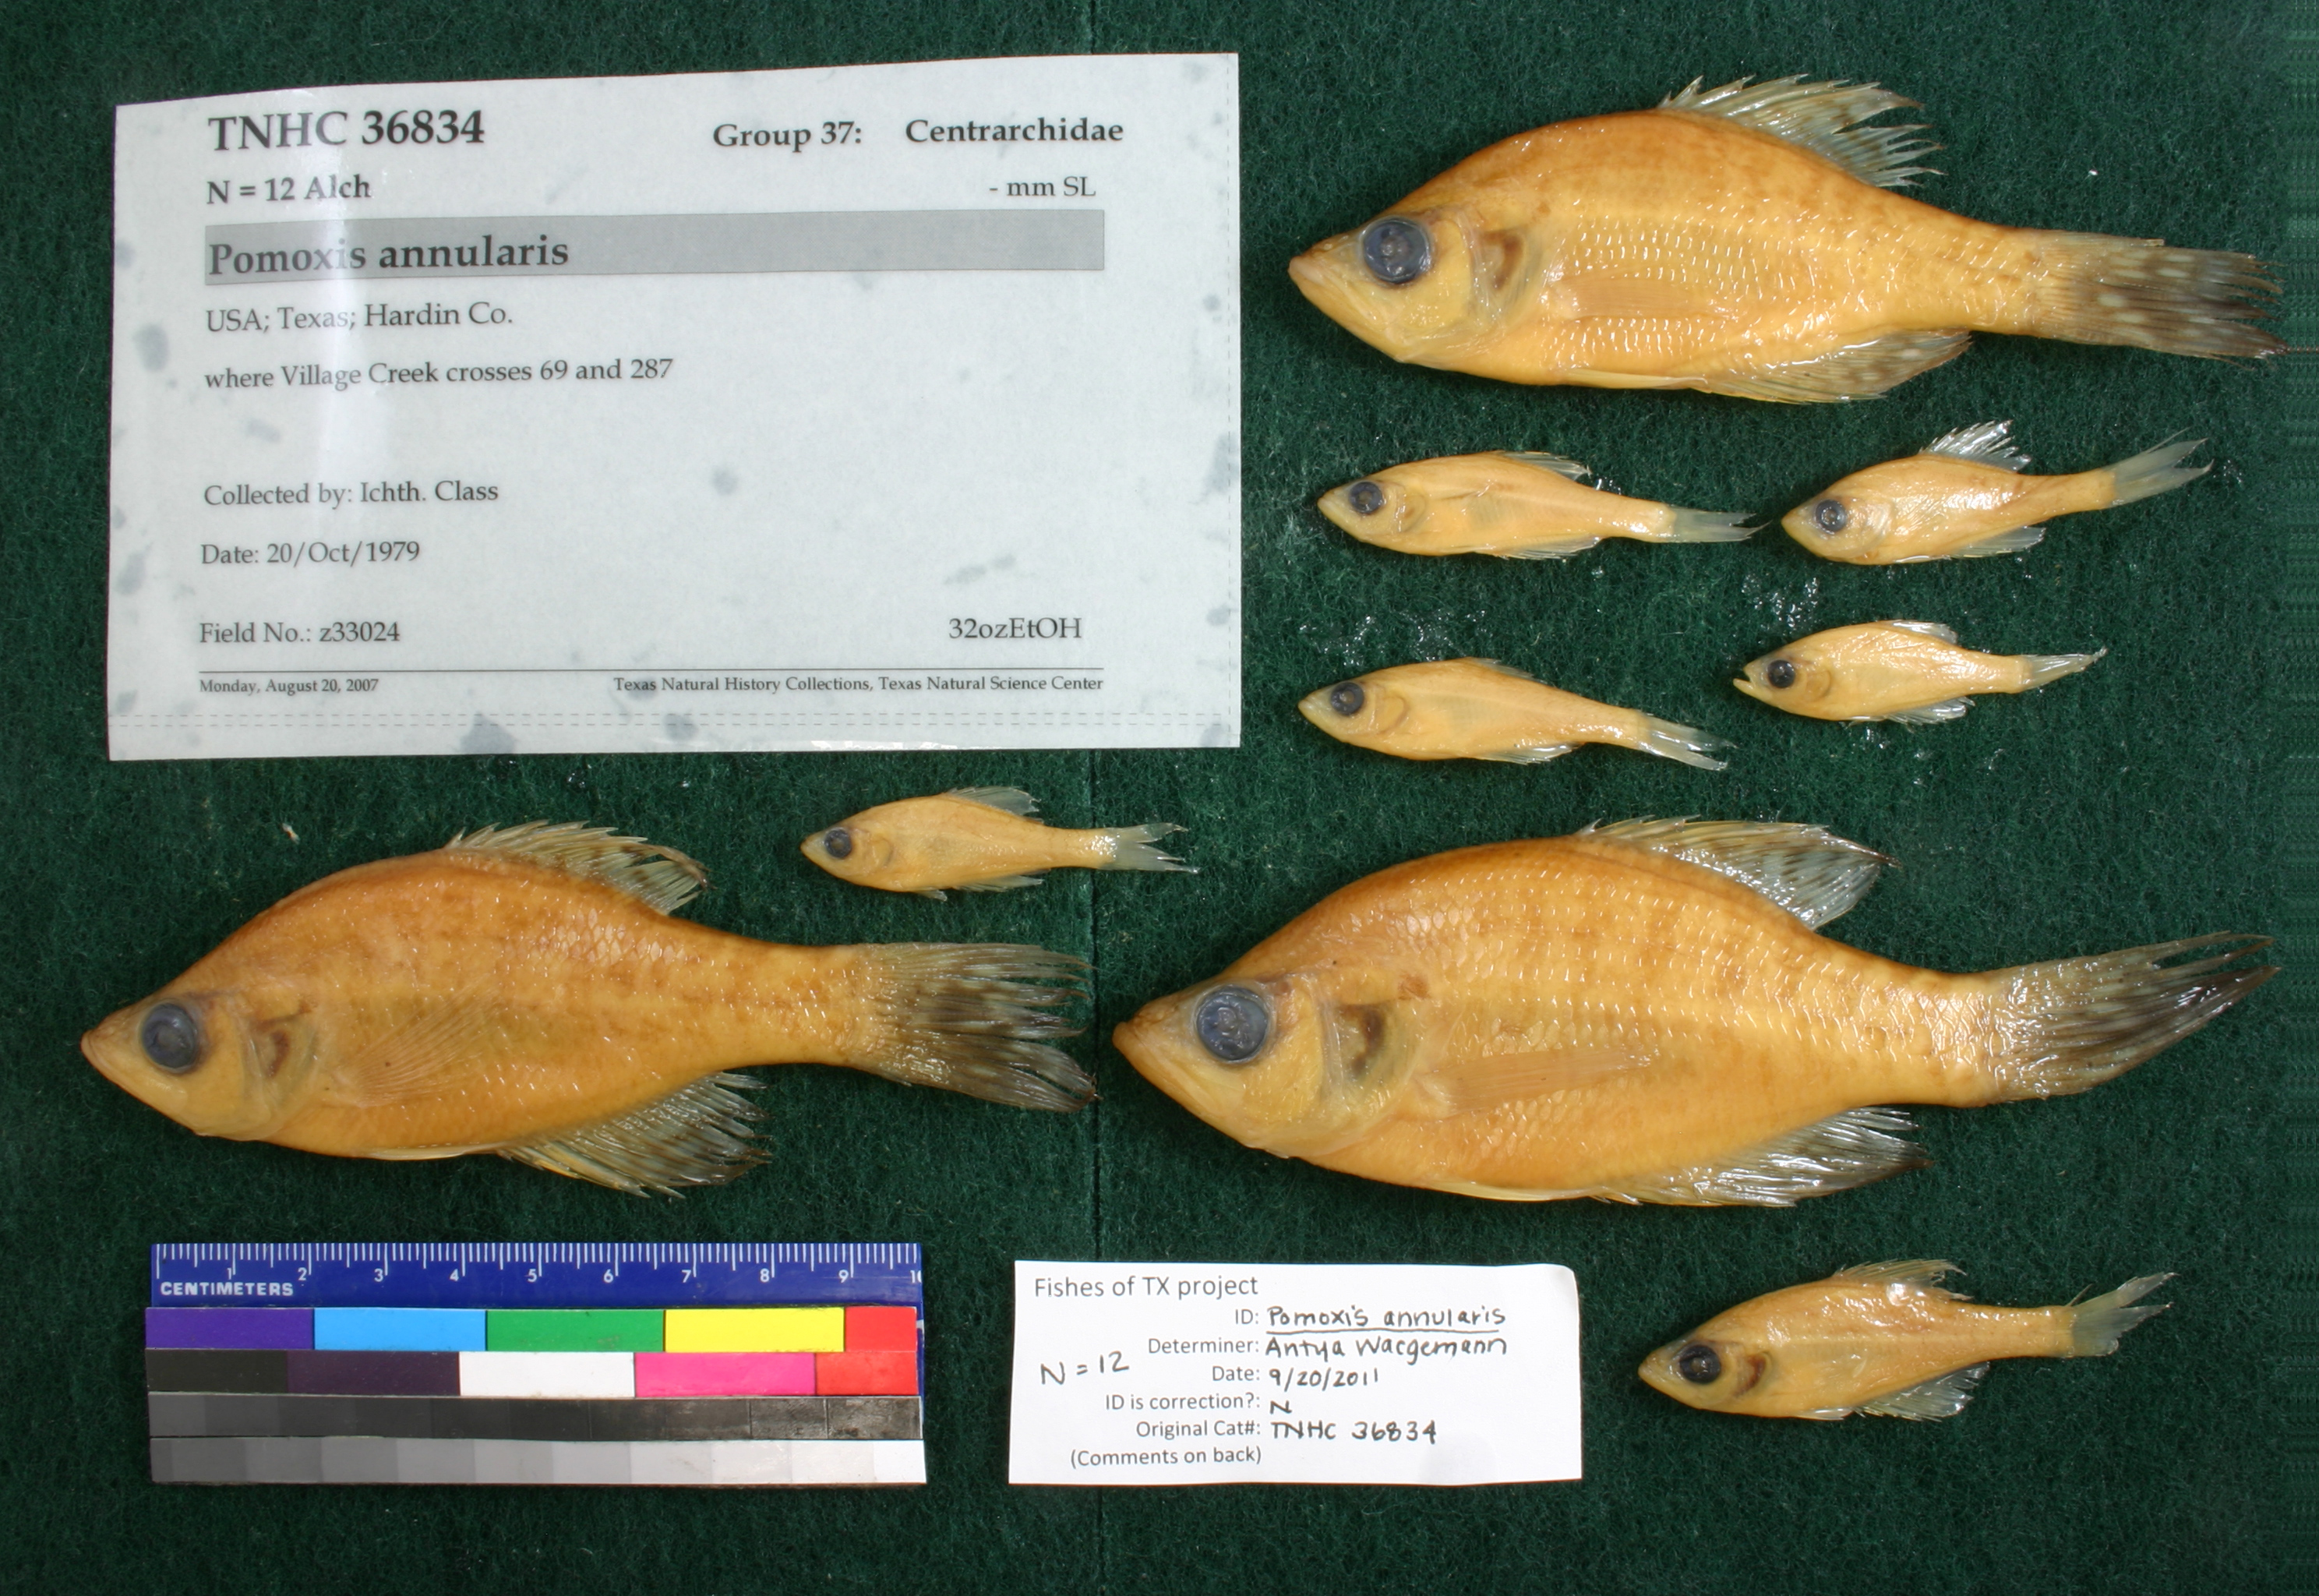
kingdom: Animalia
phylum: Chordata
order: Perciformes
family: Centrarchidae
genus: Pomoxis
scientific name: Pomoxis annularis
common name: White crappie
